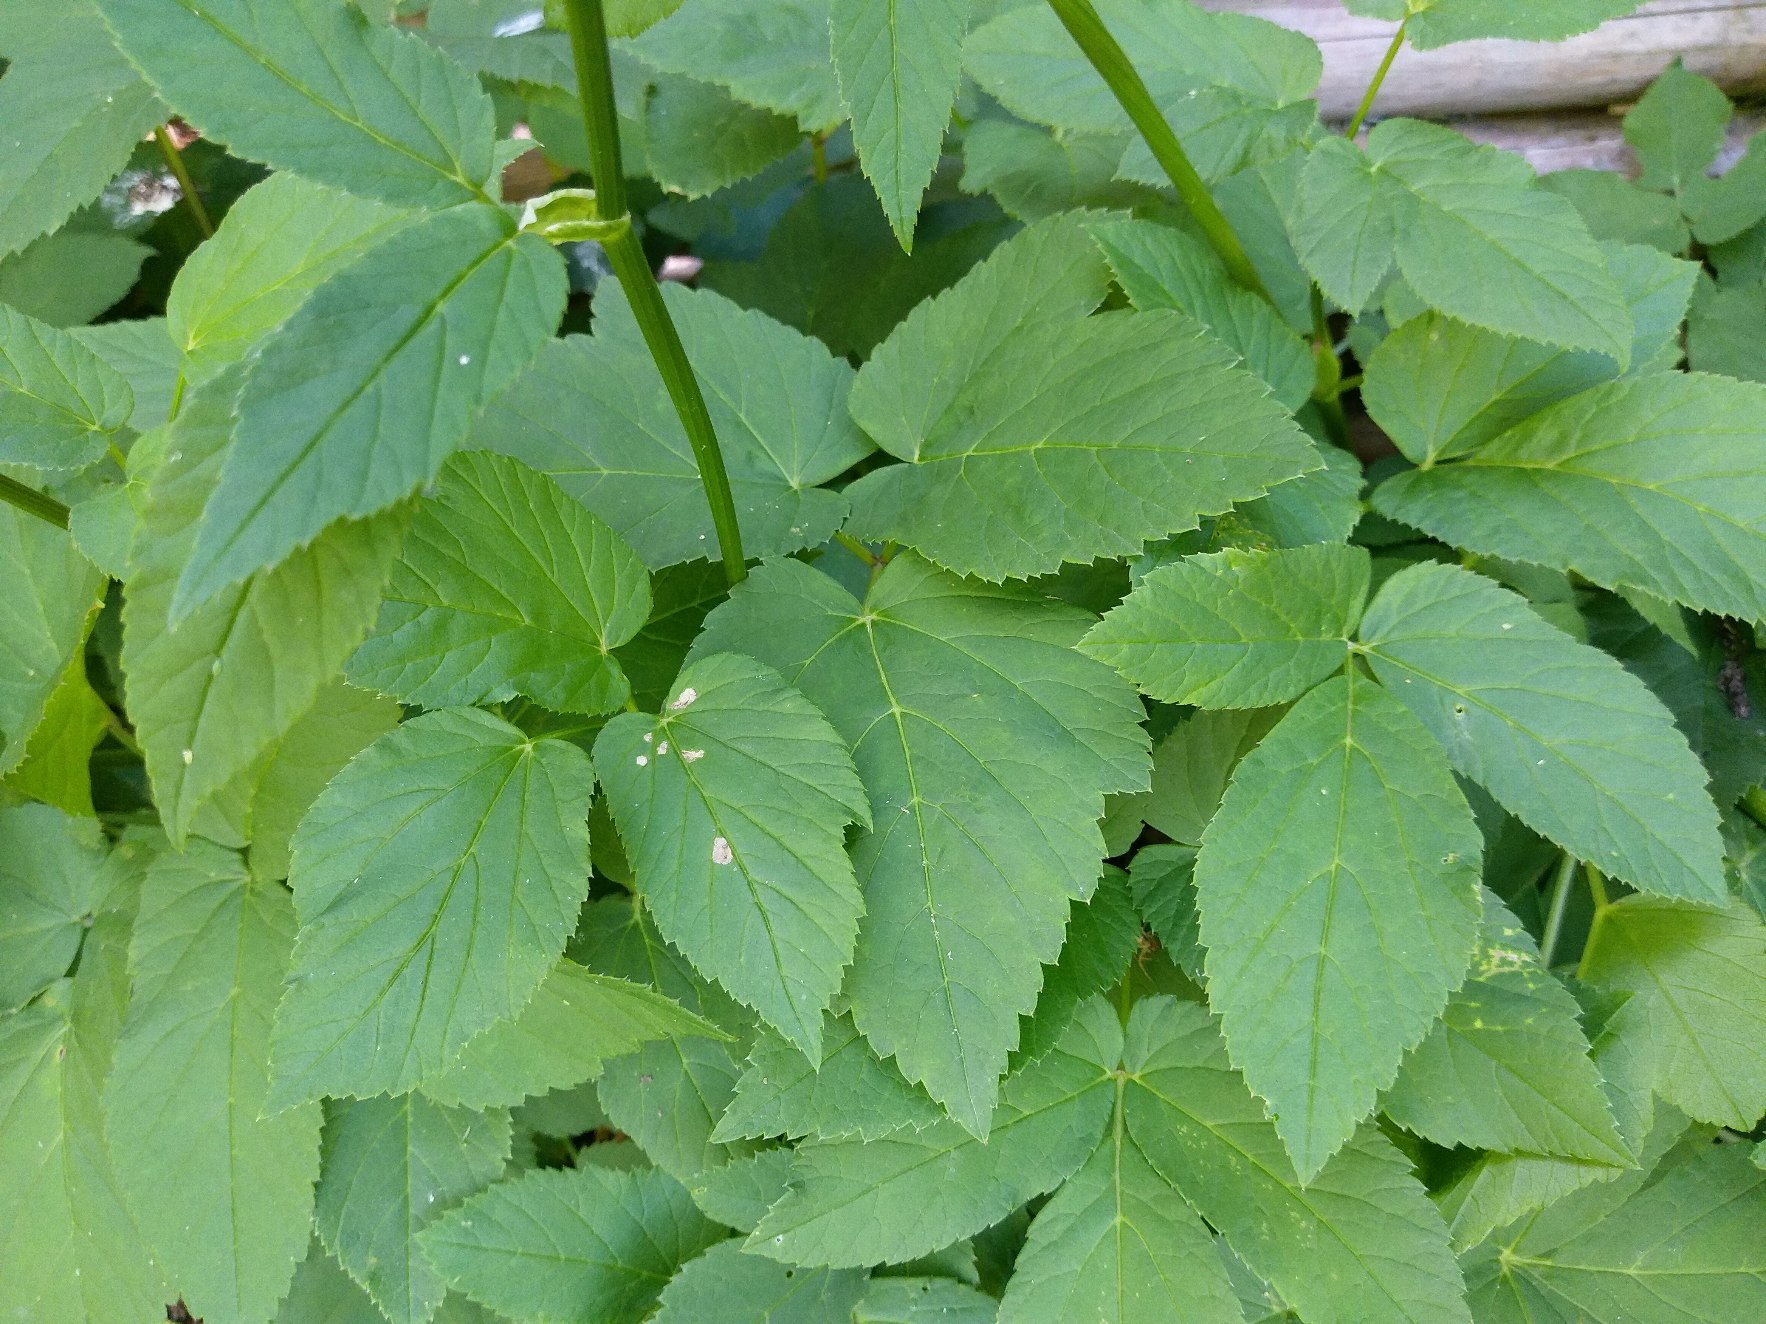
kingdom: Plantae
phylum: Tracheophyta
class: Magnoliopsida
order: Apiales
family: Apiaceae
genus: Aegopodium
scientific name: Aegopodium podagraria
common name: Skvalderkål
